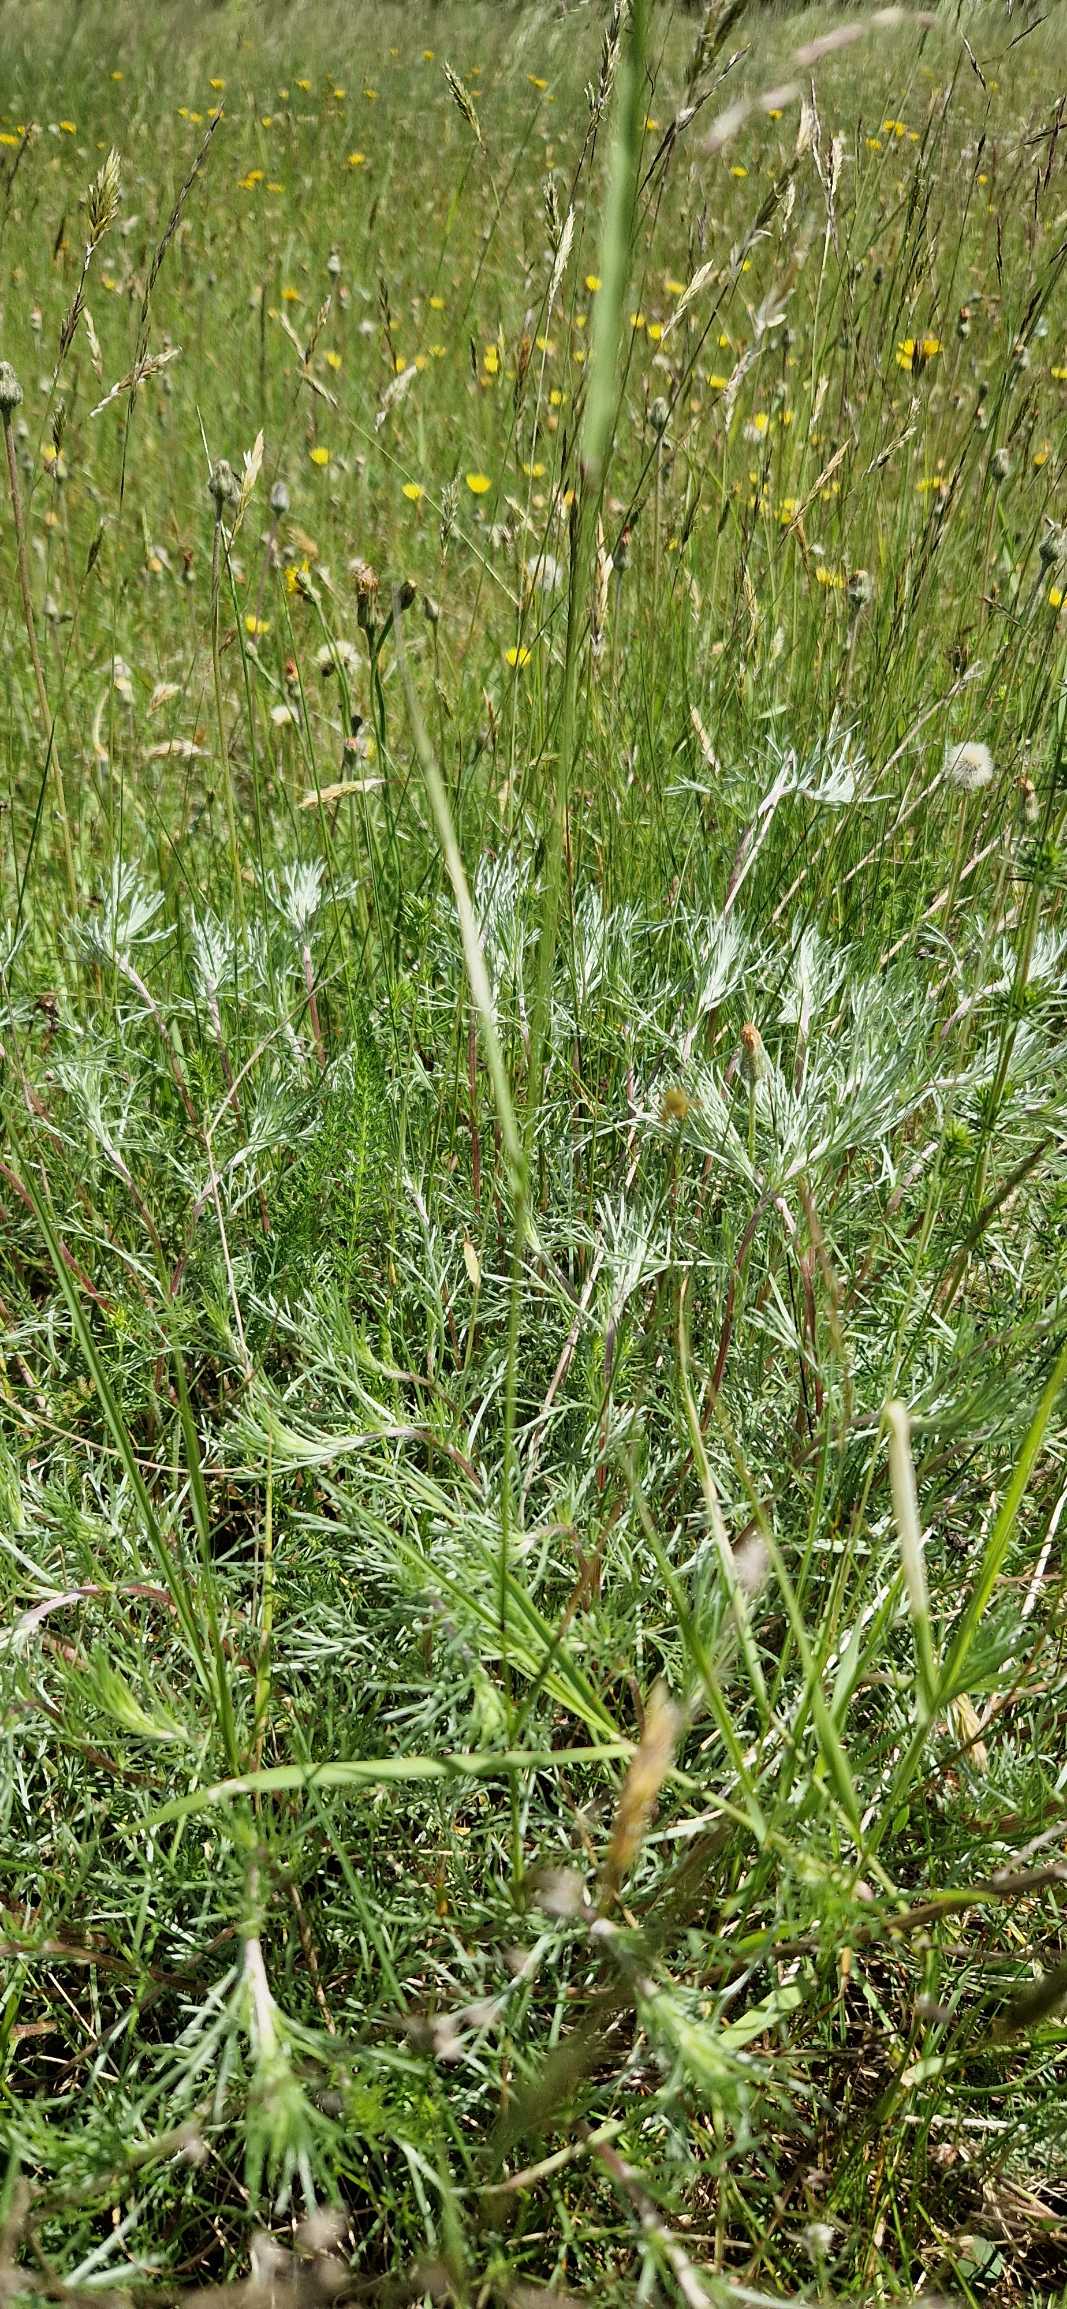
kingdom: Plantae
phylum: Tracheophyta
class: Magnoliopsida
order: Asterales
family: Asteraceae
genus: Artemisia
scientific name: Artemisia campestris
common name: Mark-bynke
